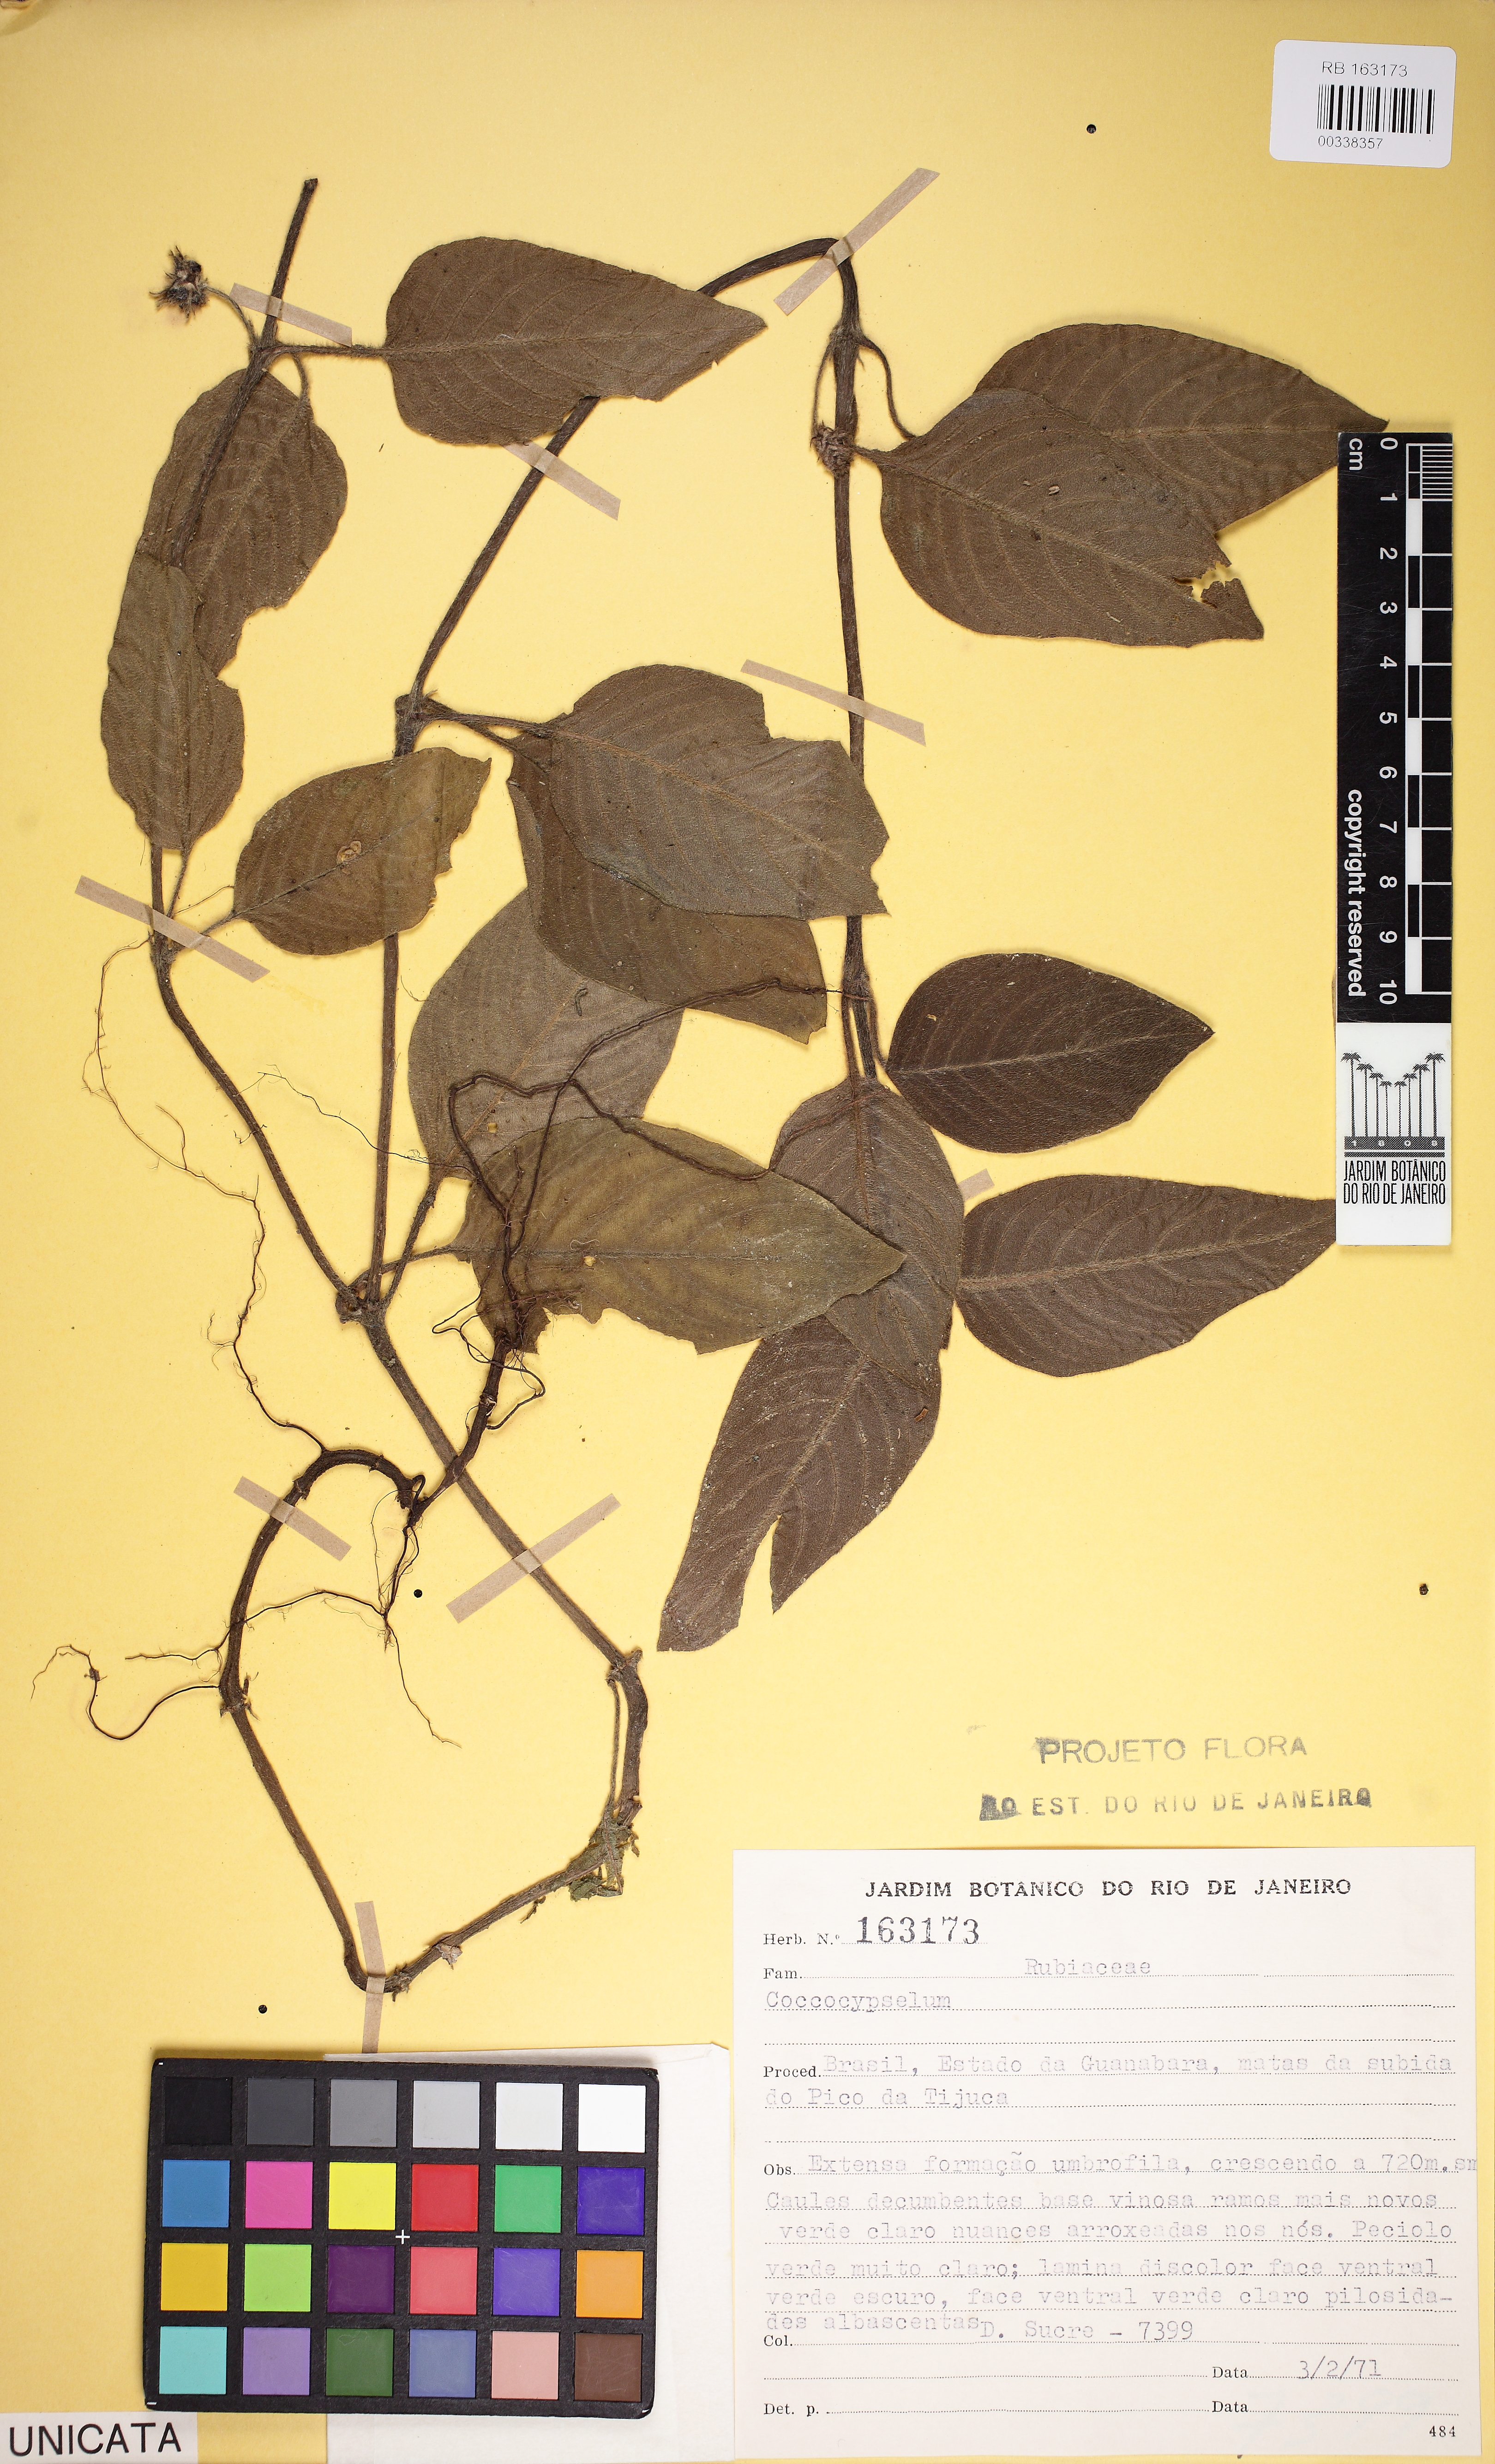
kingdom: Plantae
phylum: Tracheophyta
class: Magnoliopsida
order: Gentianales
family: Rubiaceae
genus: Coccocypselum
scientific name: Coccocypselum
